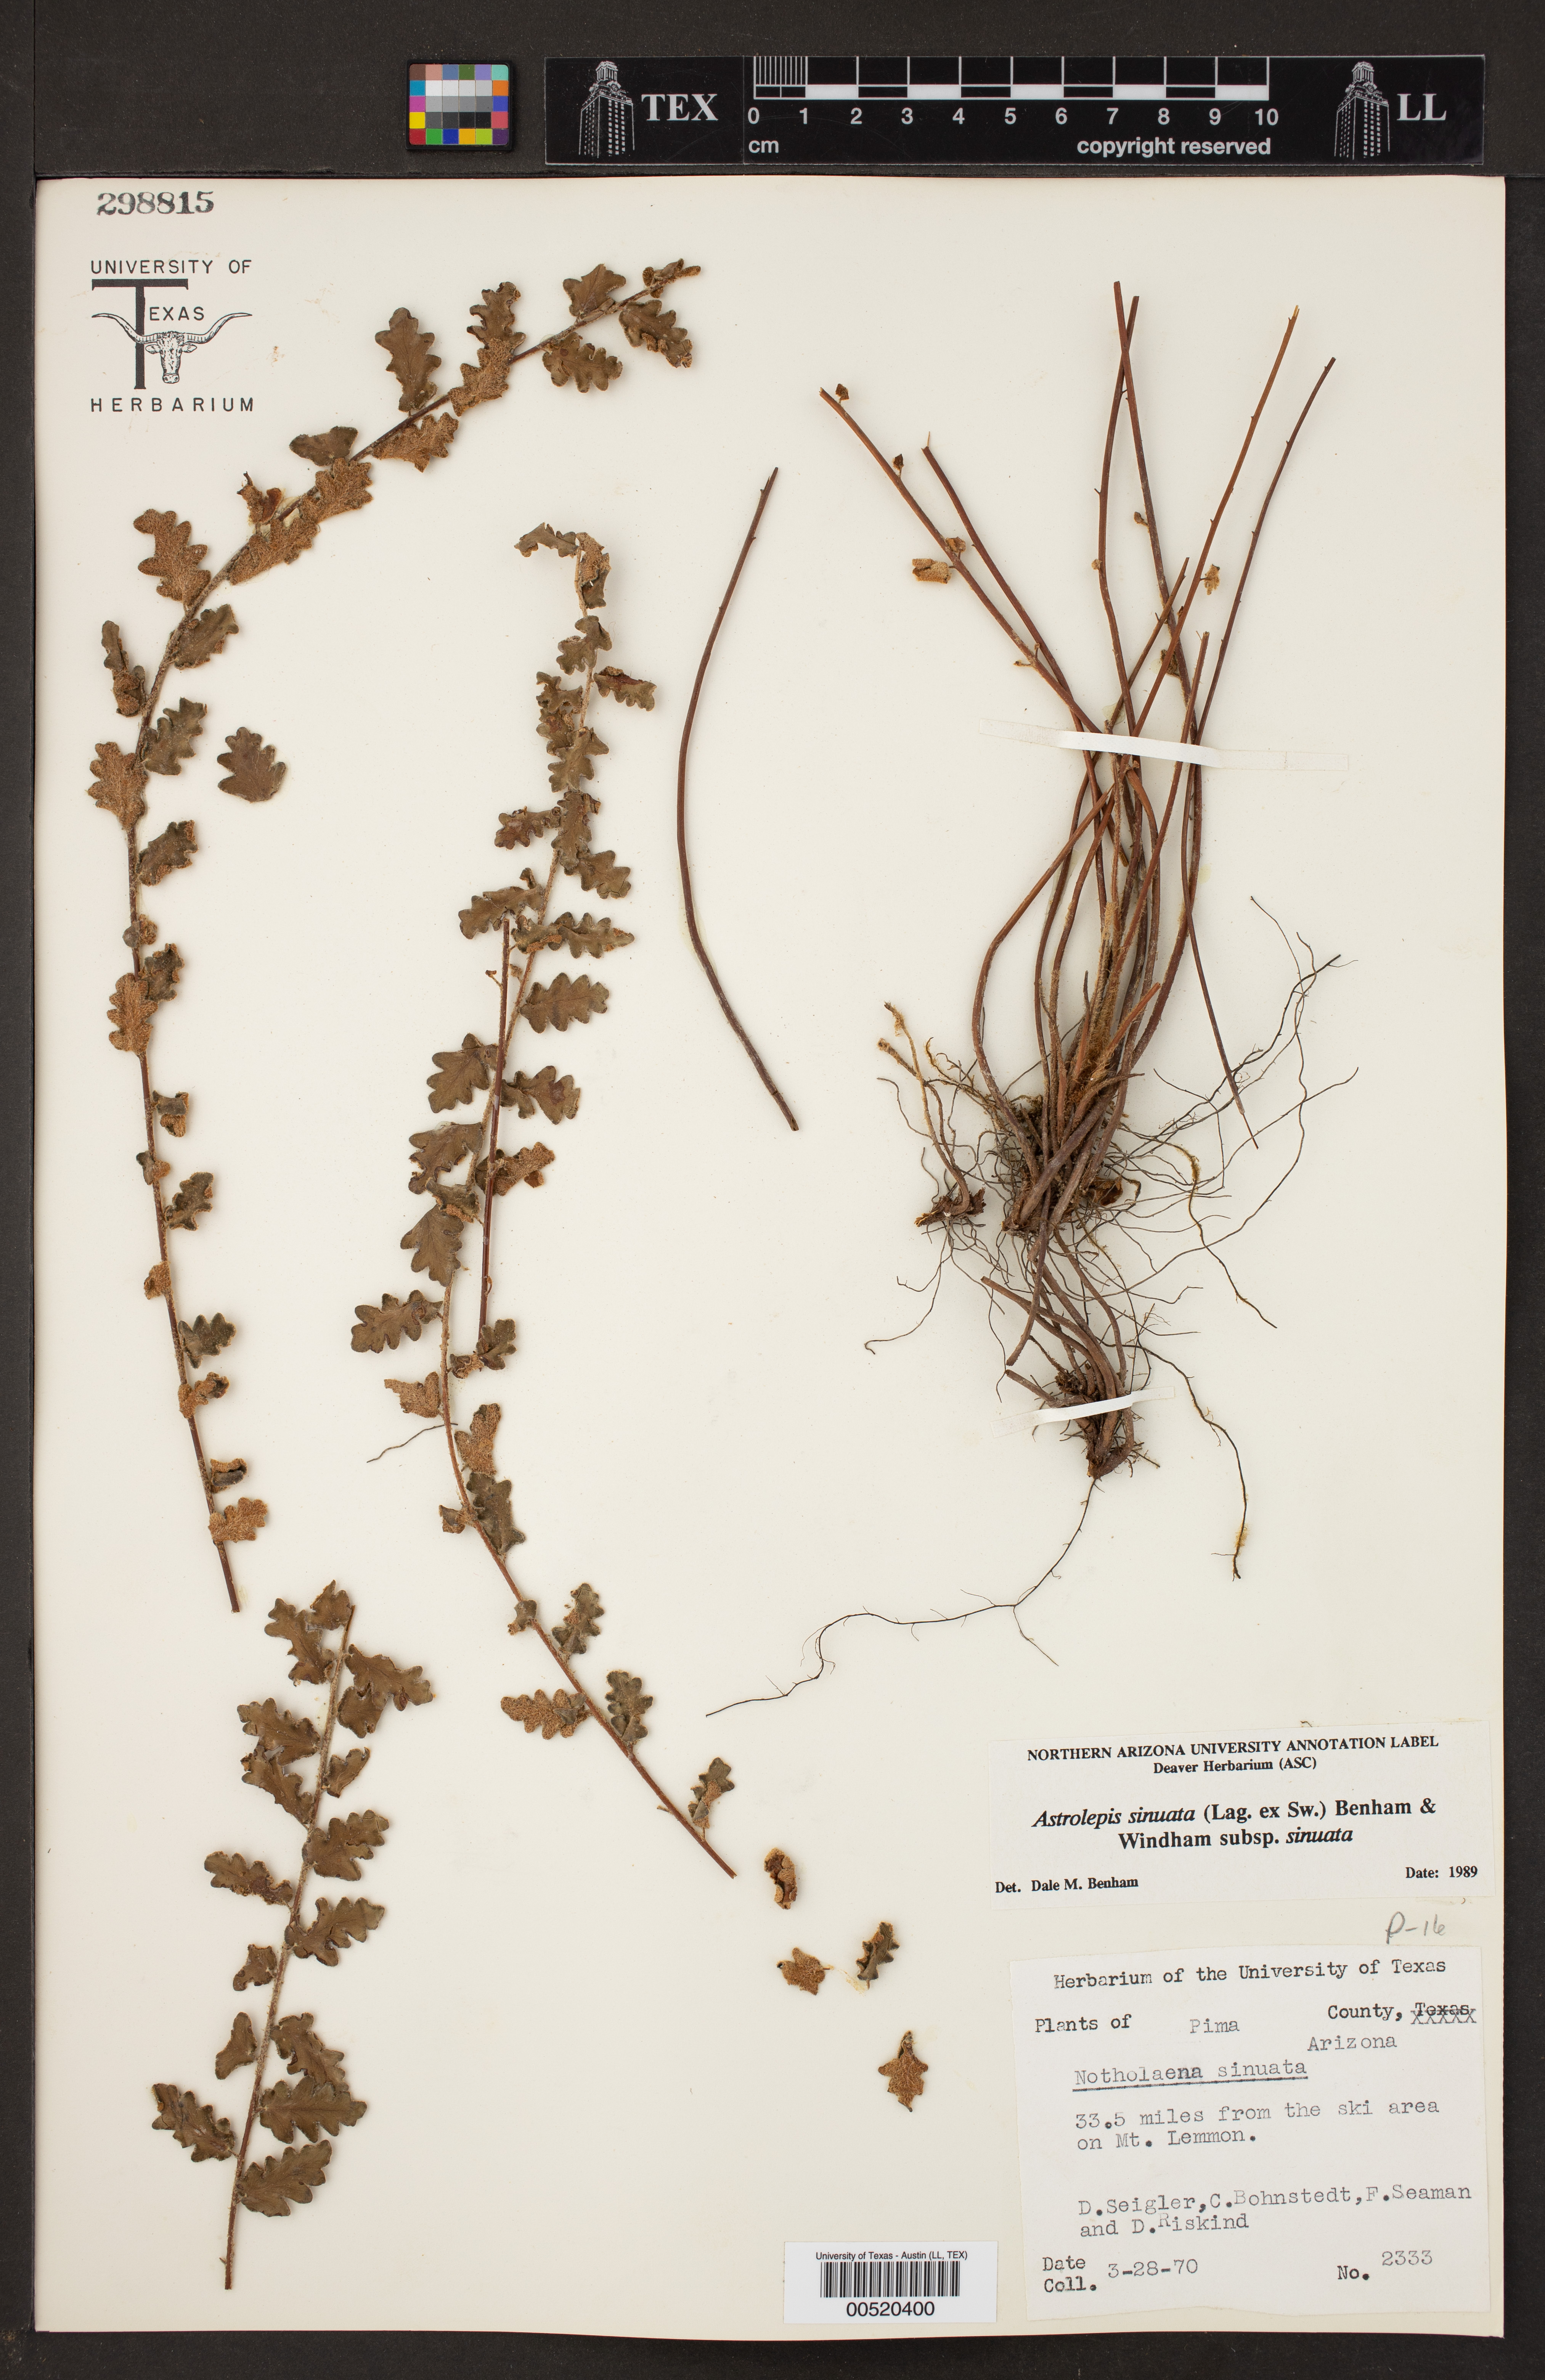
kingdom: Plantae
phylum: Tracheophyta
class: Polypodiopsida
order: Polypodiales
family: Pteridaceae
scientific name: Pteridaceae
